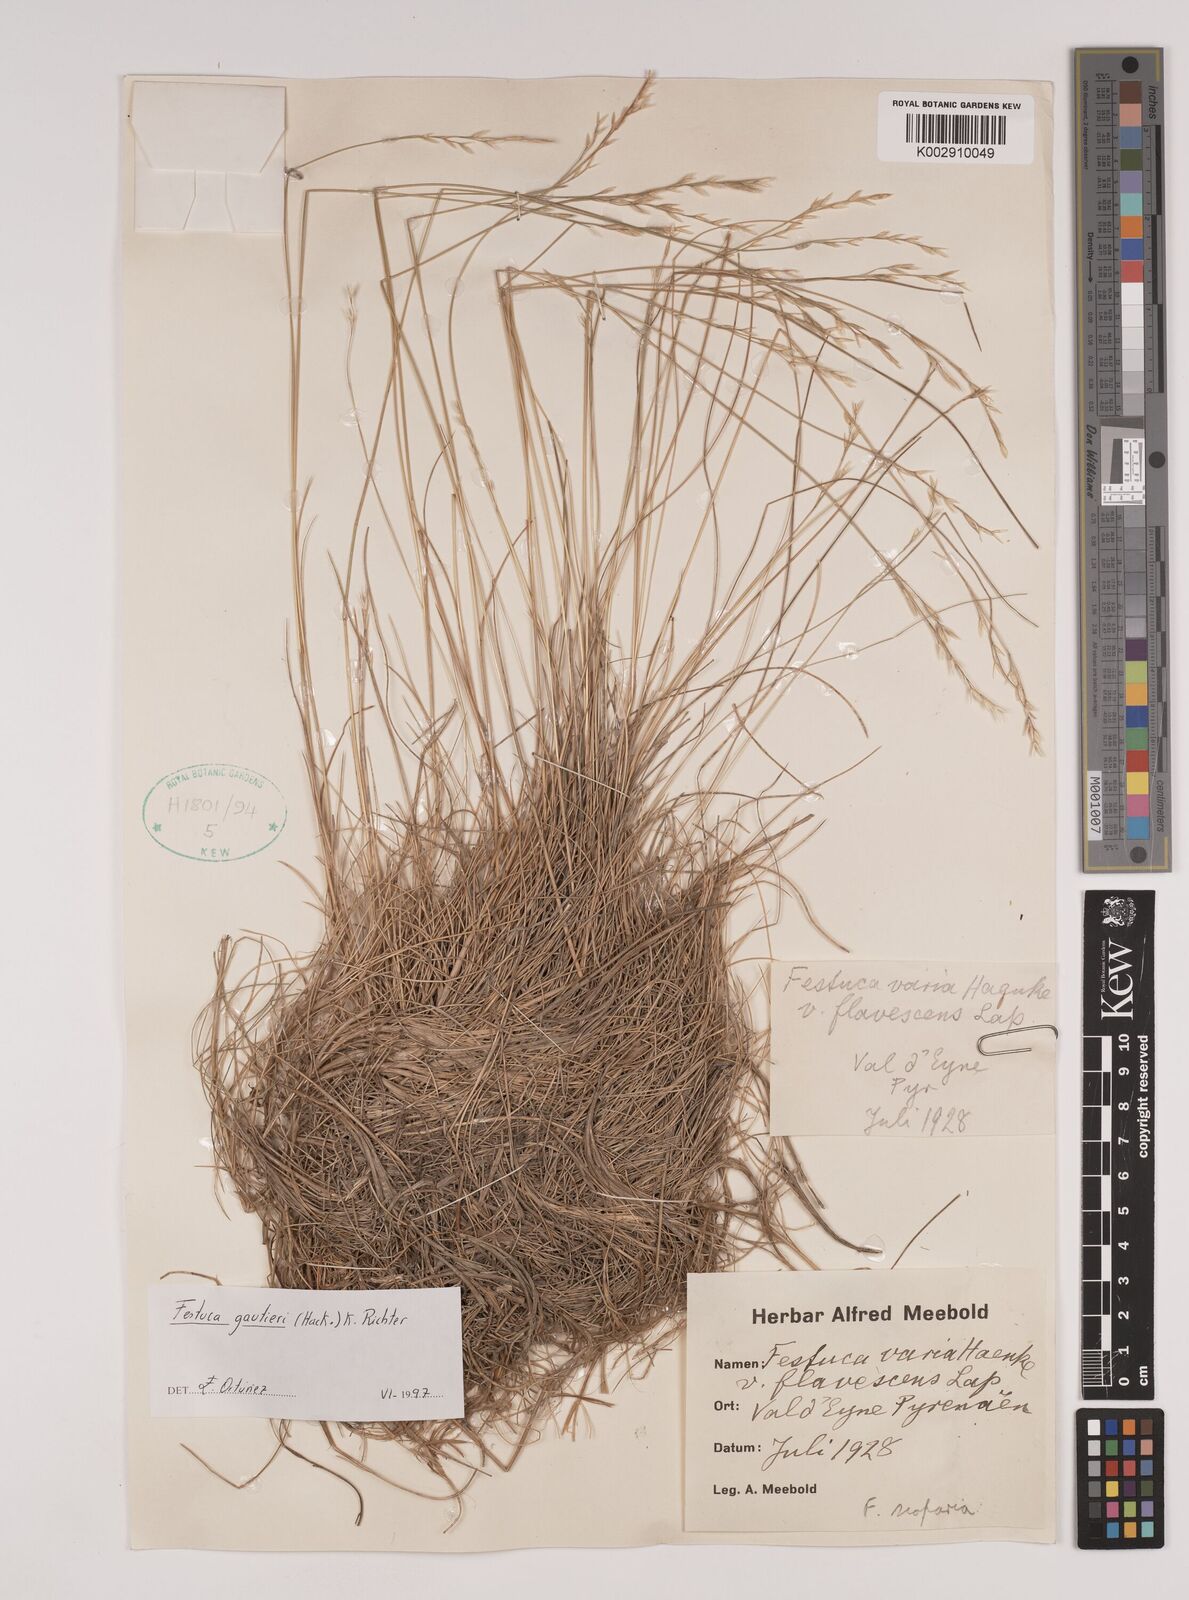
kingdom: Plantae
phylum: Tracheophyta
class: Liliopsida
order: Poales
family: Poaceae
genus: Festuca
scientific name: Festuca gautieri
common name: Spiky fescue
